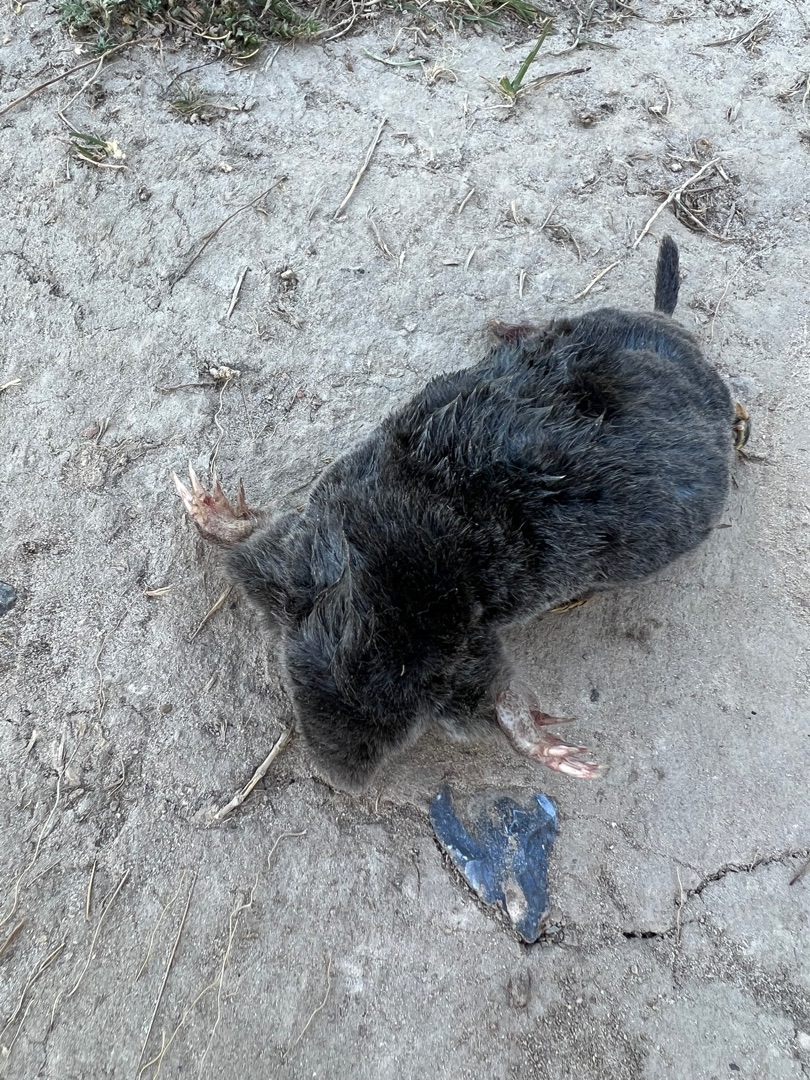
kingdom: Animalia
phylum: Chordata
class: Mammalia
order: Soricomorpha
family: Talpidae
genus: Talpa
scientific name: Talpa europaea
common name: Muldvarp
